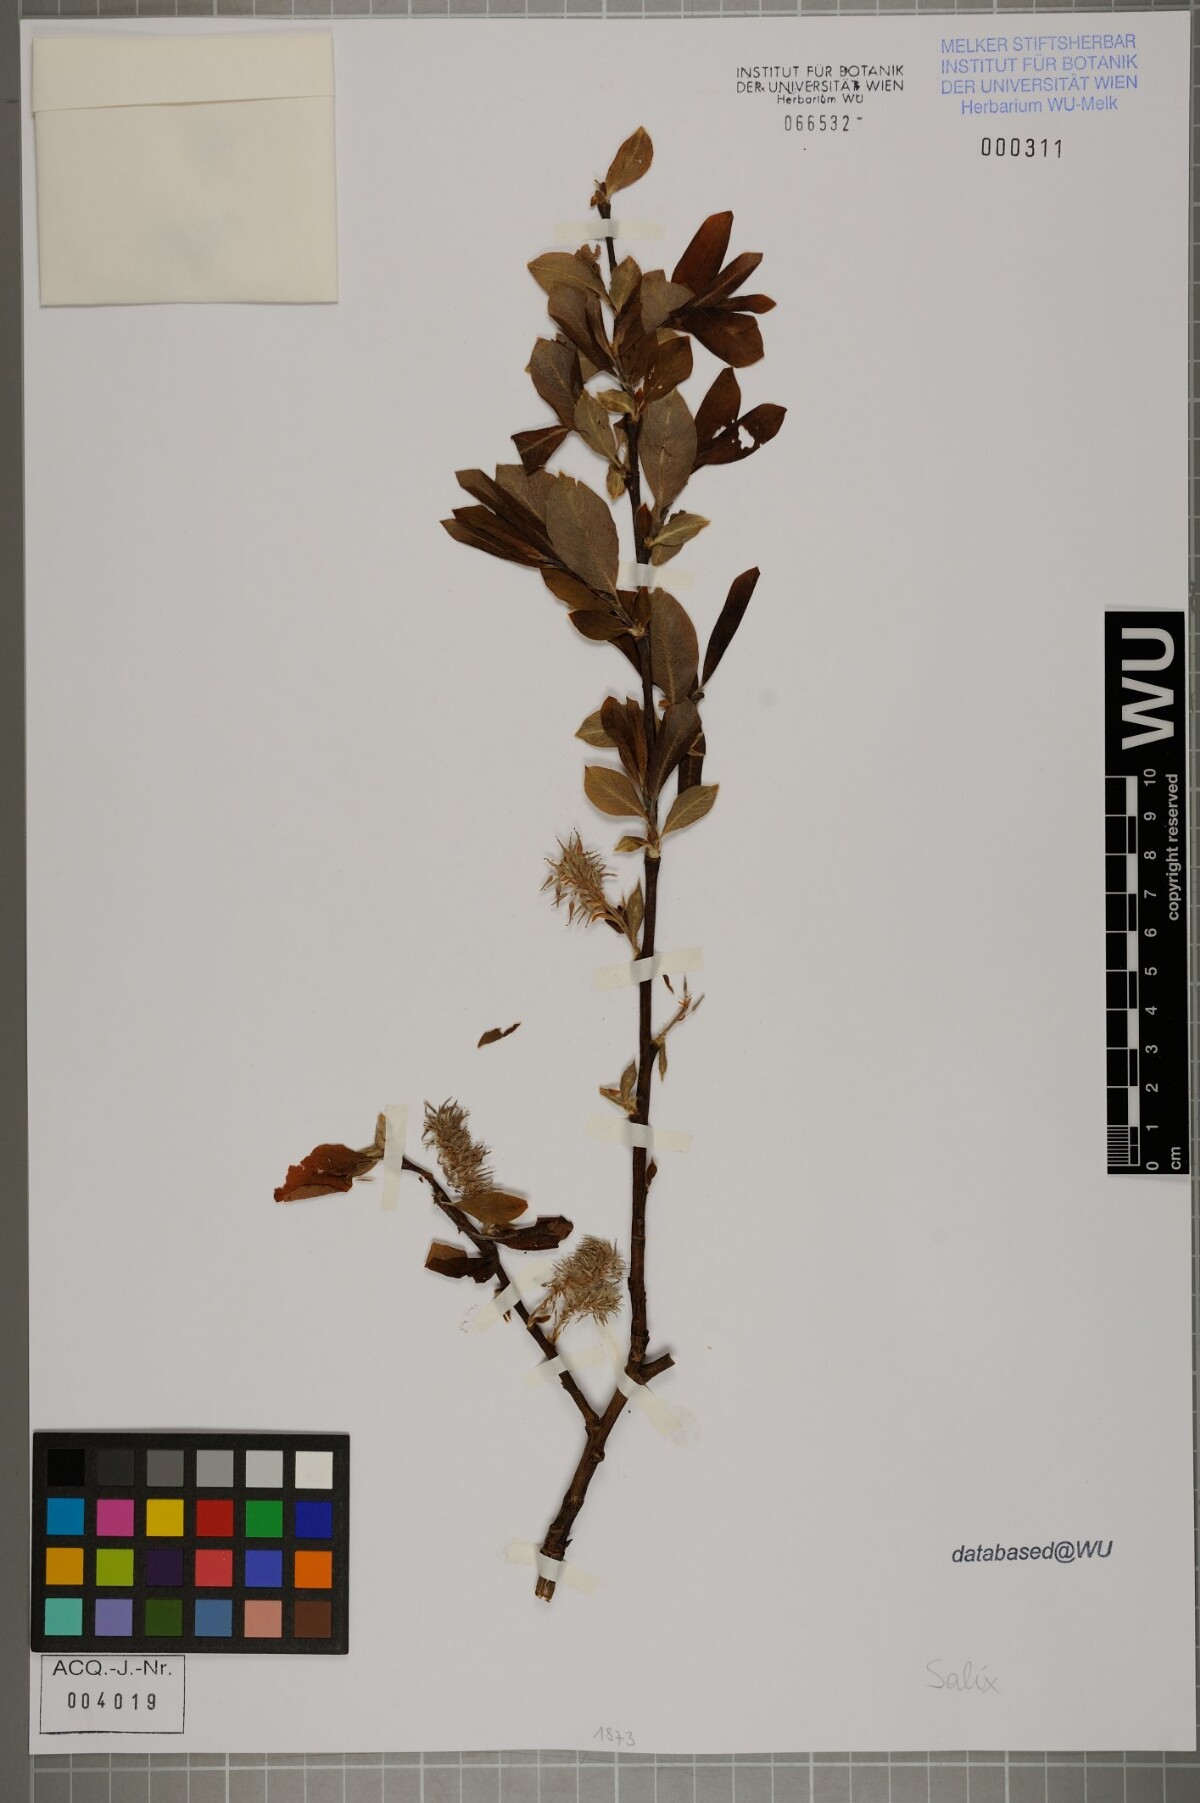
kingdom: Plantae
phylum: Tracheophyta
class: Magnoliopsida
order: Malpighiales
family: Salicaceae
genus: Salix
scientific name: Salix
